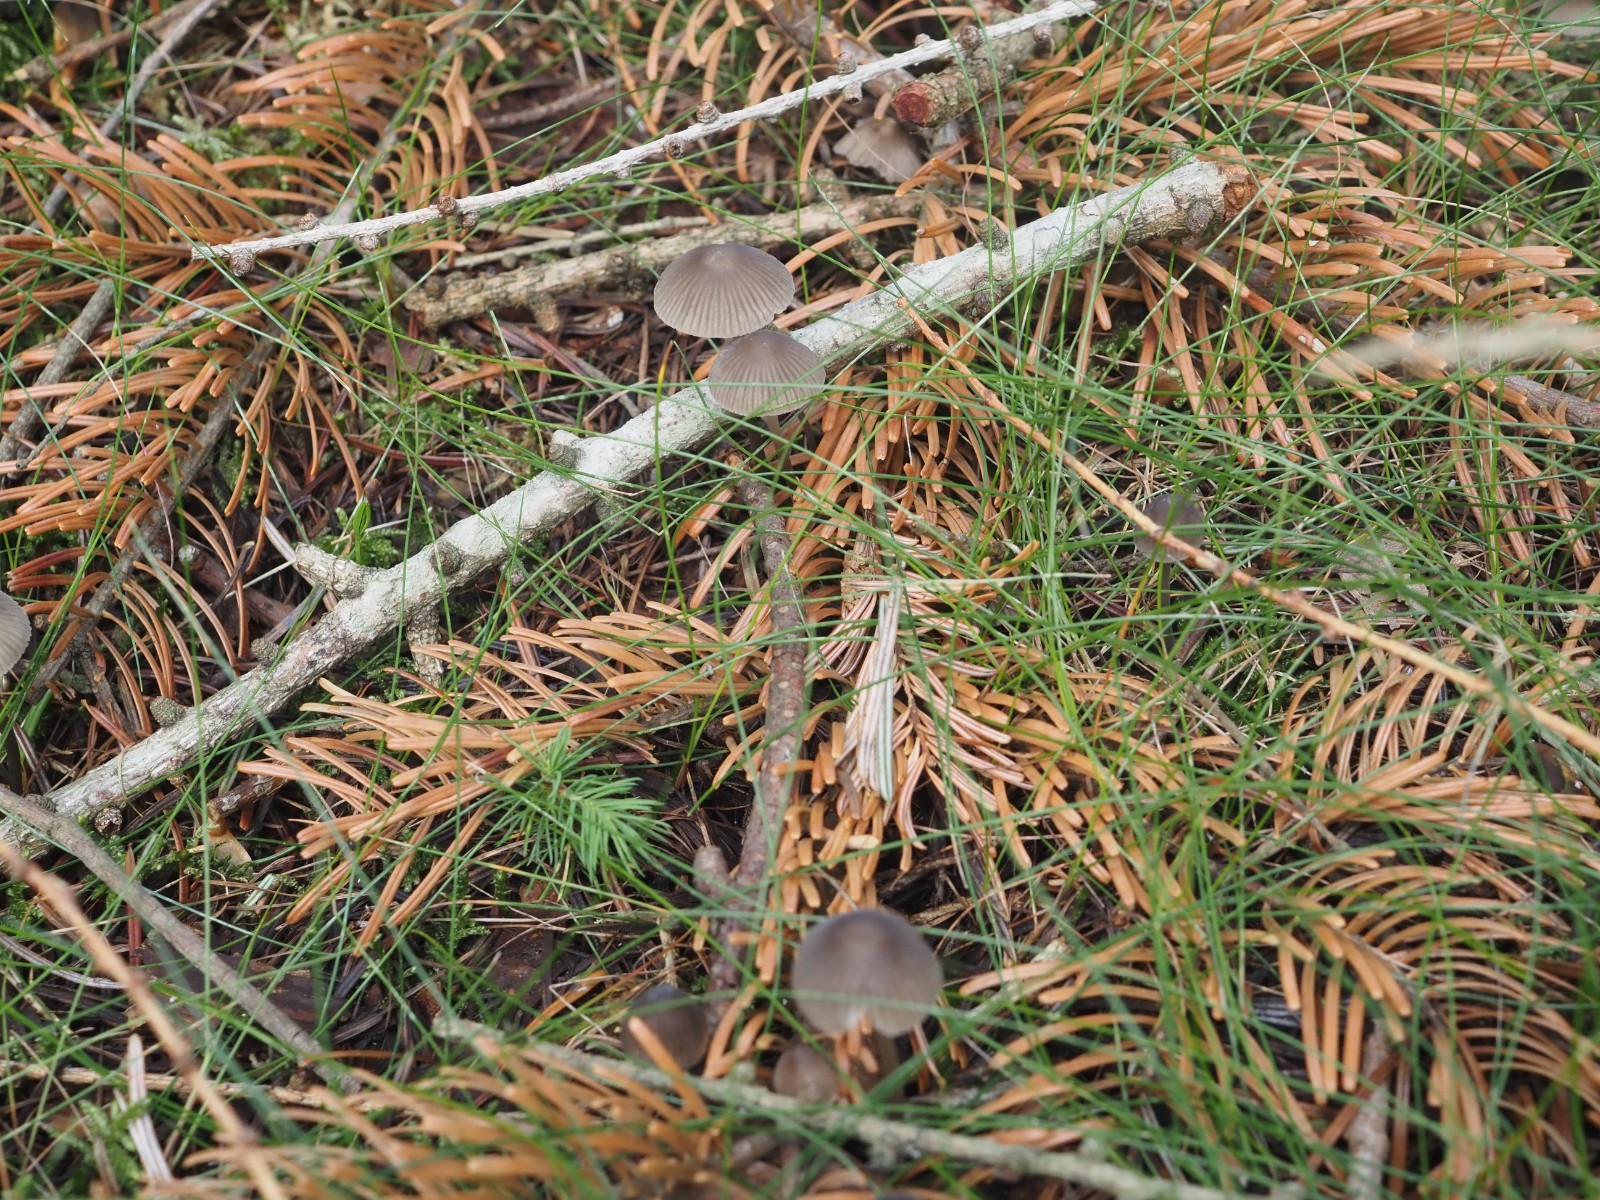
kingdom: Fungi
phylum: Basidiomycota
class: Agaricomycetes
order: Agaricales
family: Mycenaceae
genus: Mycena
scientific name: Mycena abramsii
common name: sommer-huesvamp
